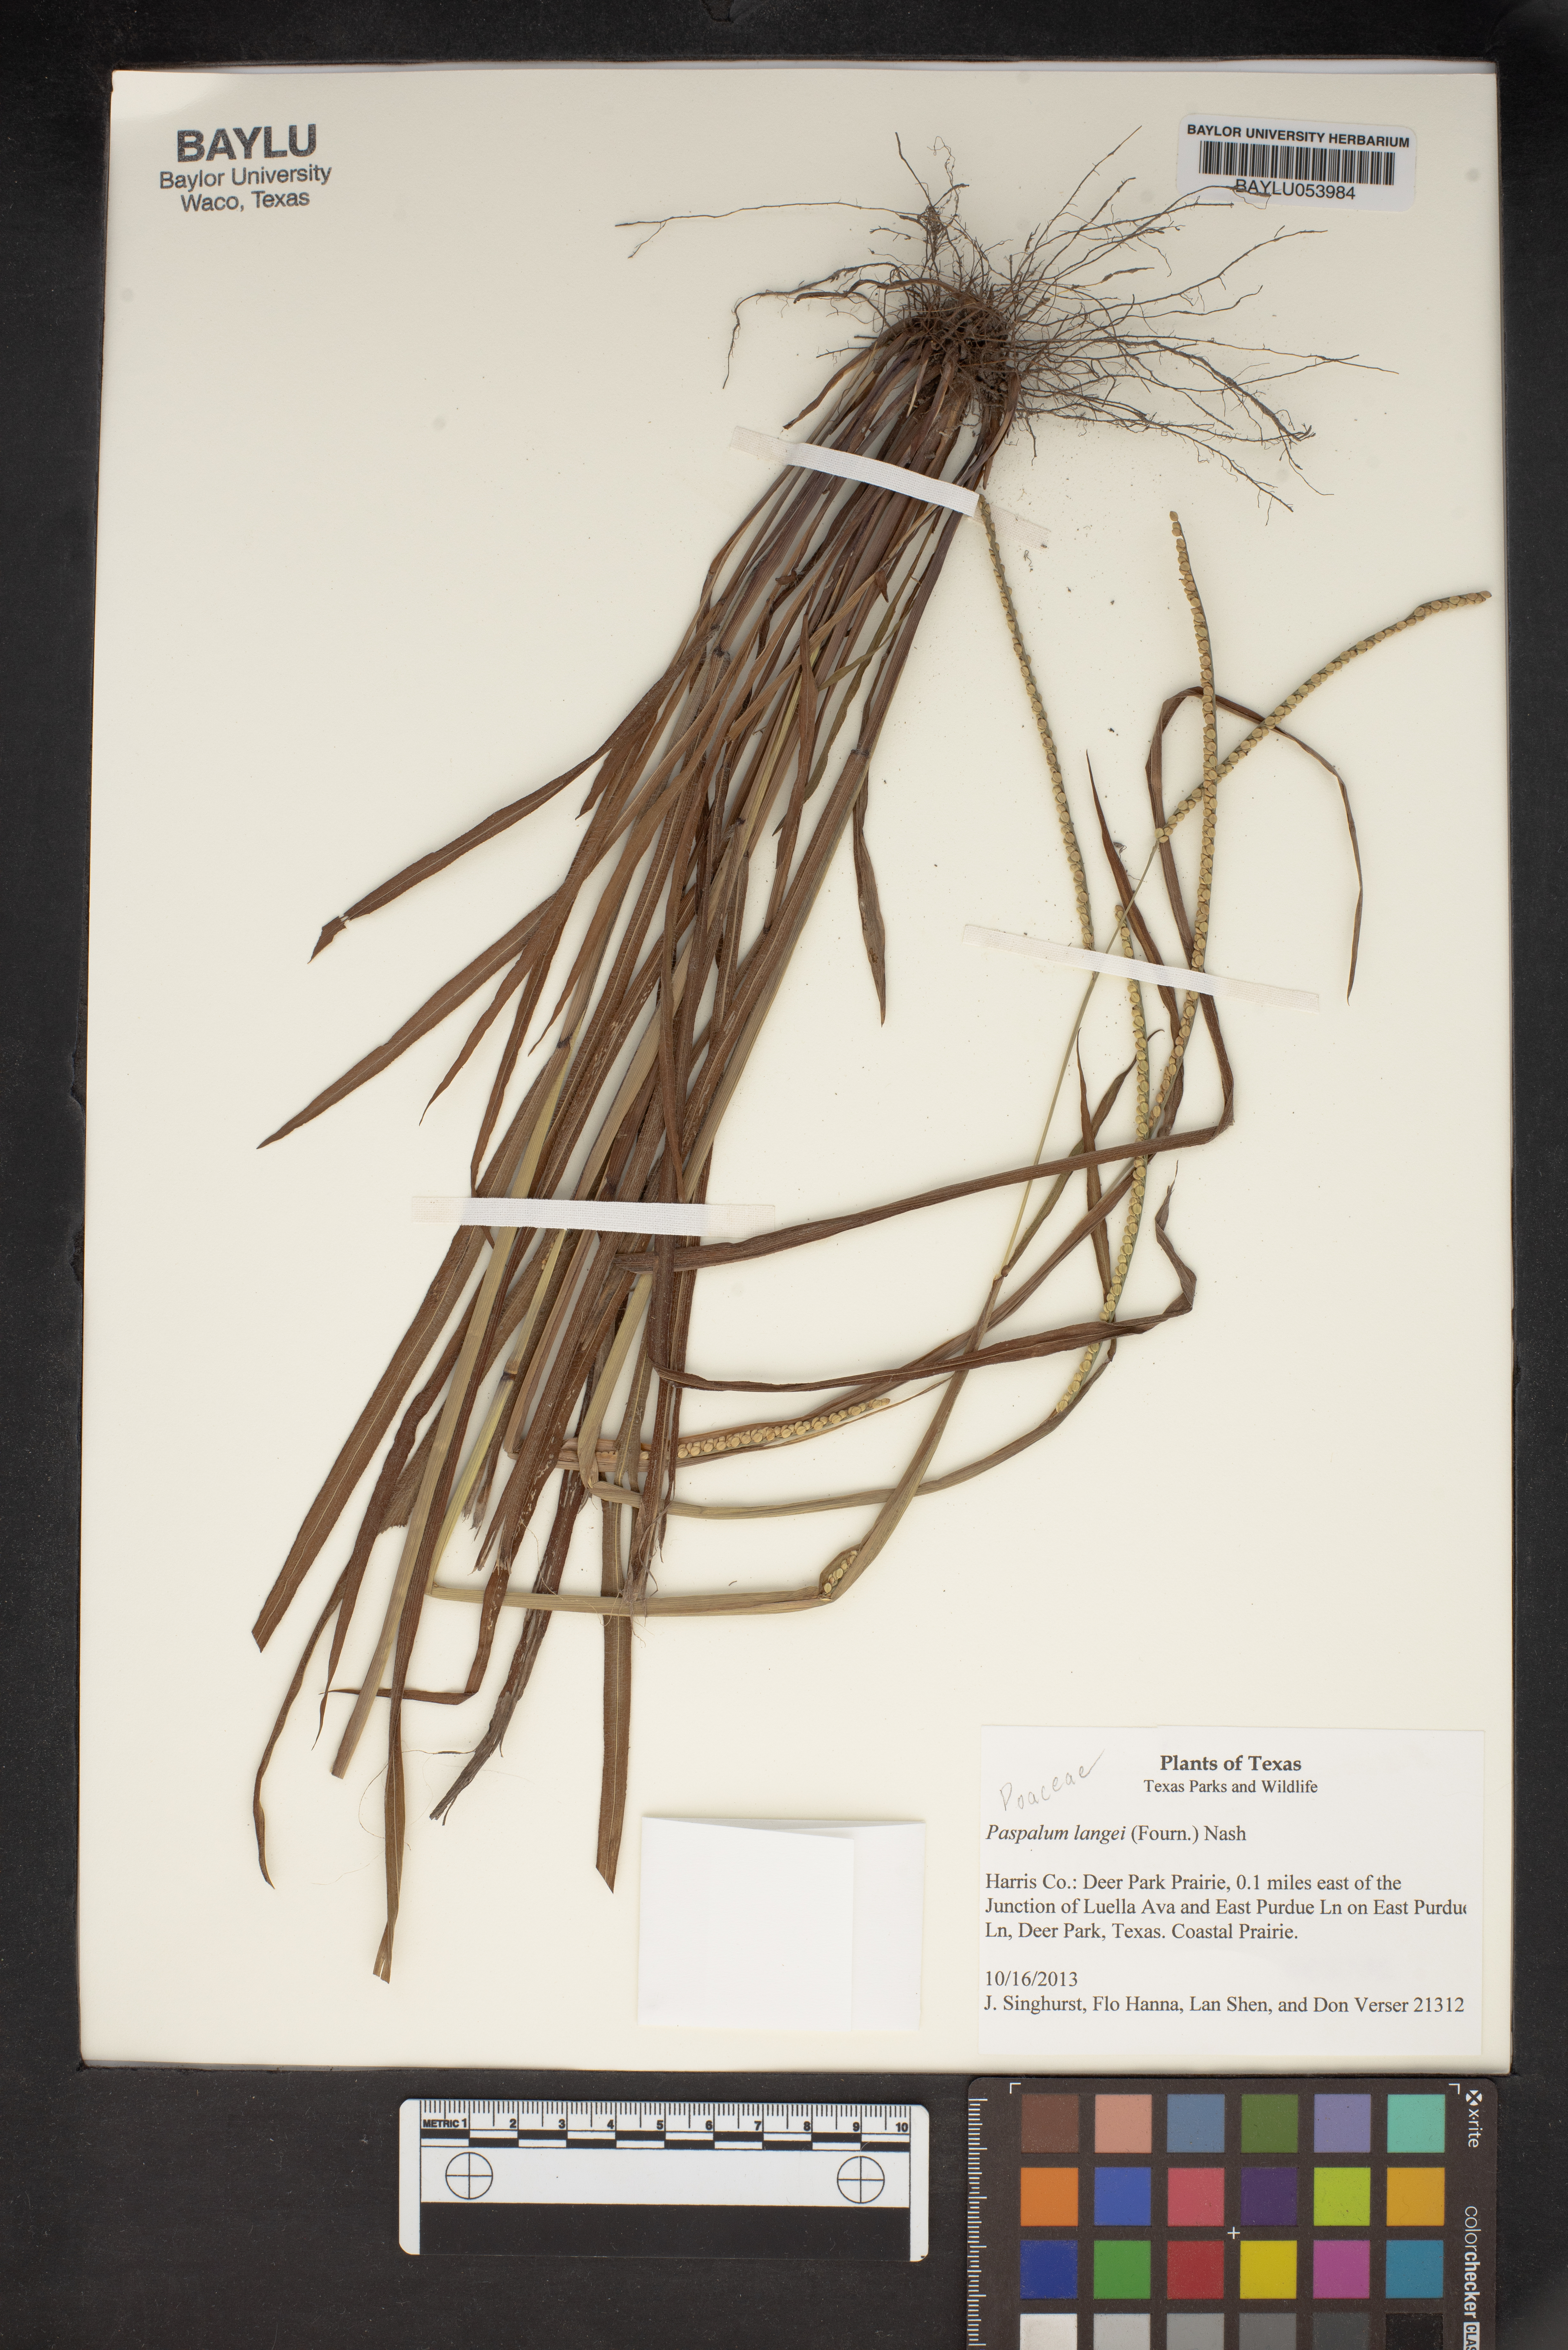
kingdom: Plantae
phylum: Tracheophyta
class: Liliopsida
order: Poales
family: Poaceae
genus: Paspalum
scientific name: Paspalum langei
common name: Rusty-seed paspalum
